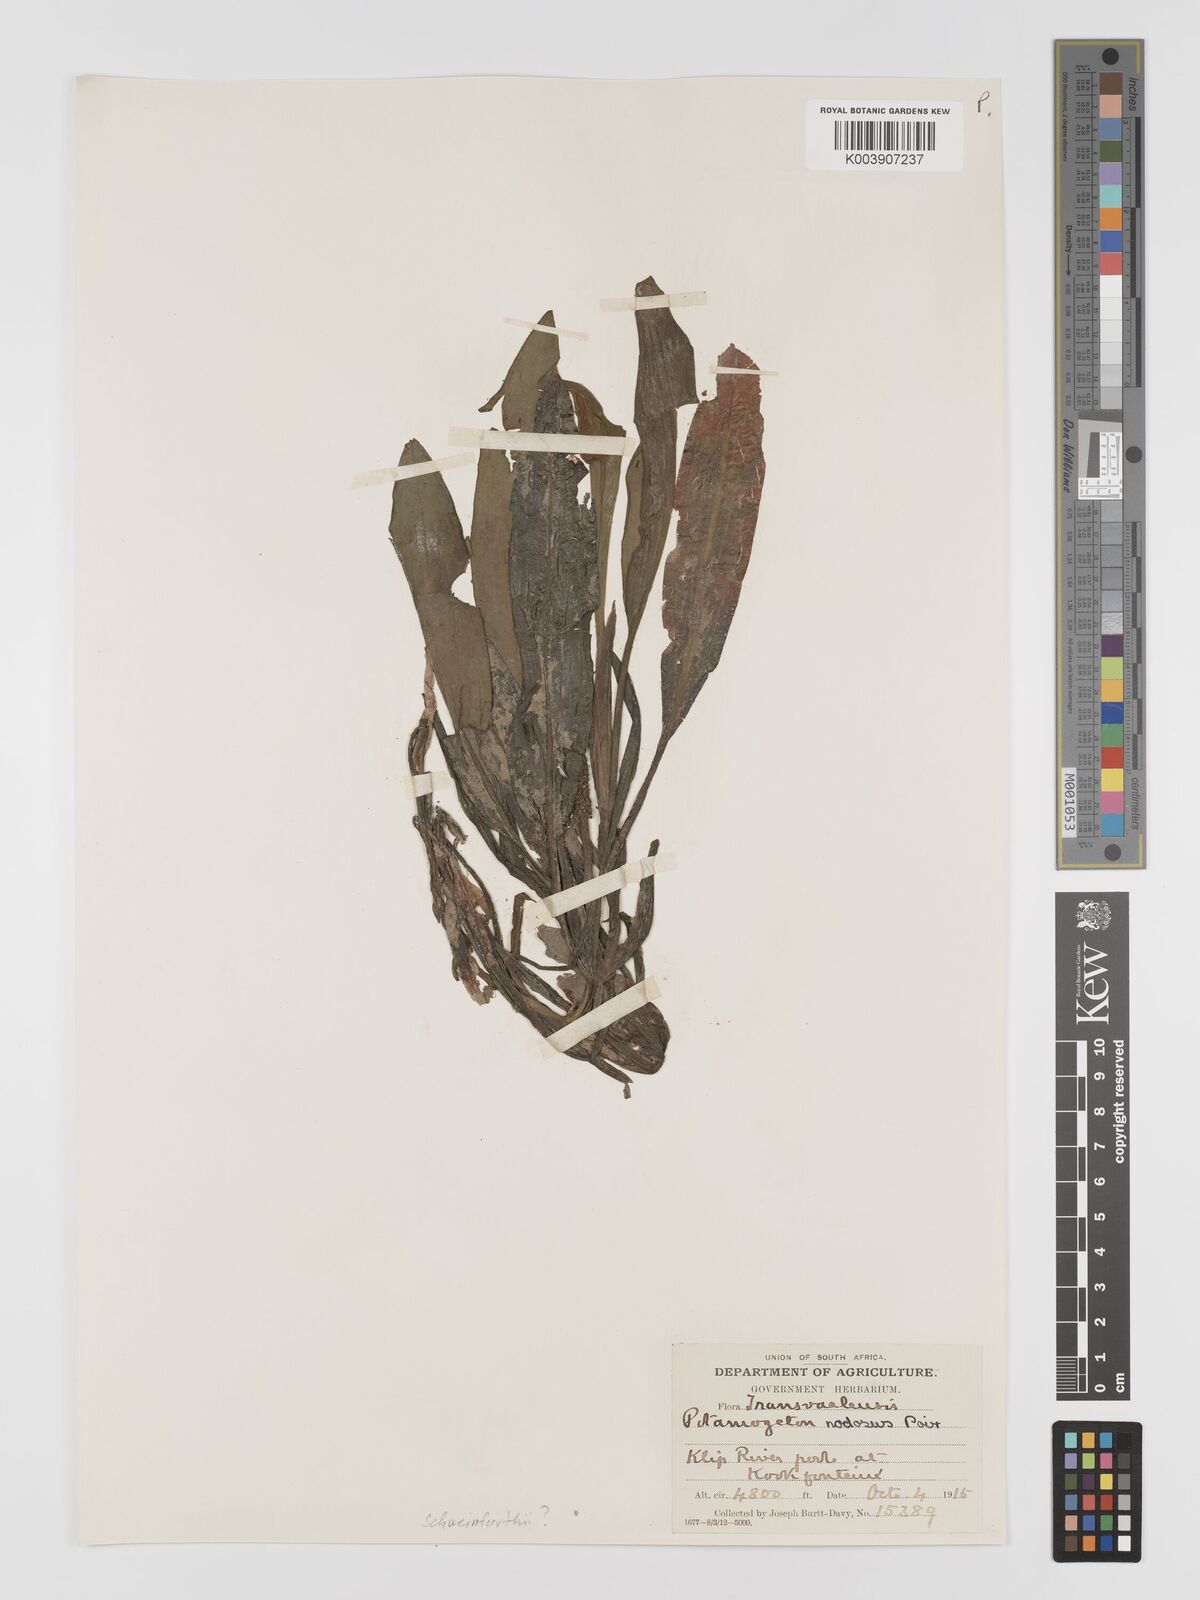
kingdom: Plantae
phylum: Tracheophyta
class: Liliopsida
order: Alismatales
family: Potamogetonaceae
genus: Potamogeton
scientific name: Potamogeton nodosus
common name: Loddon pondweed
